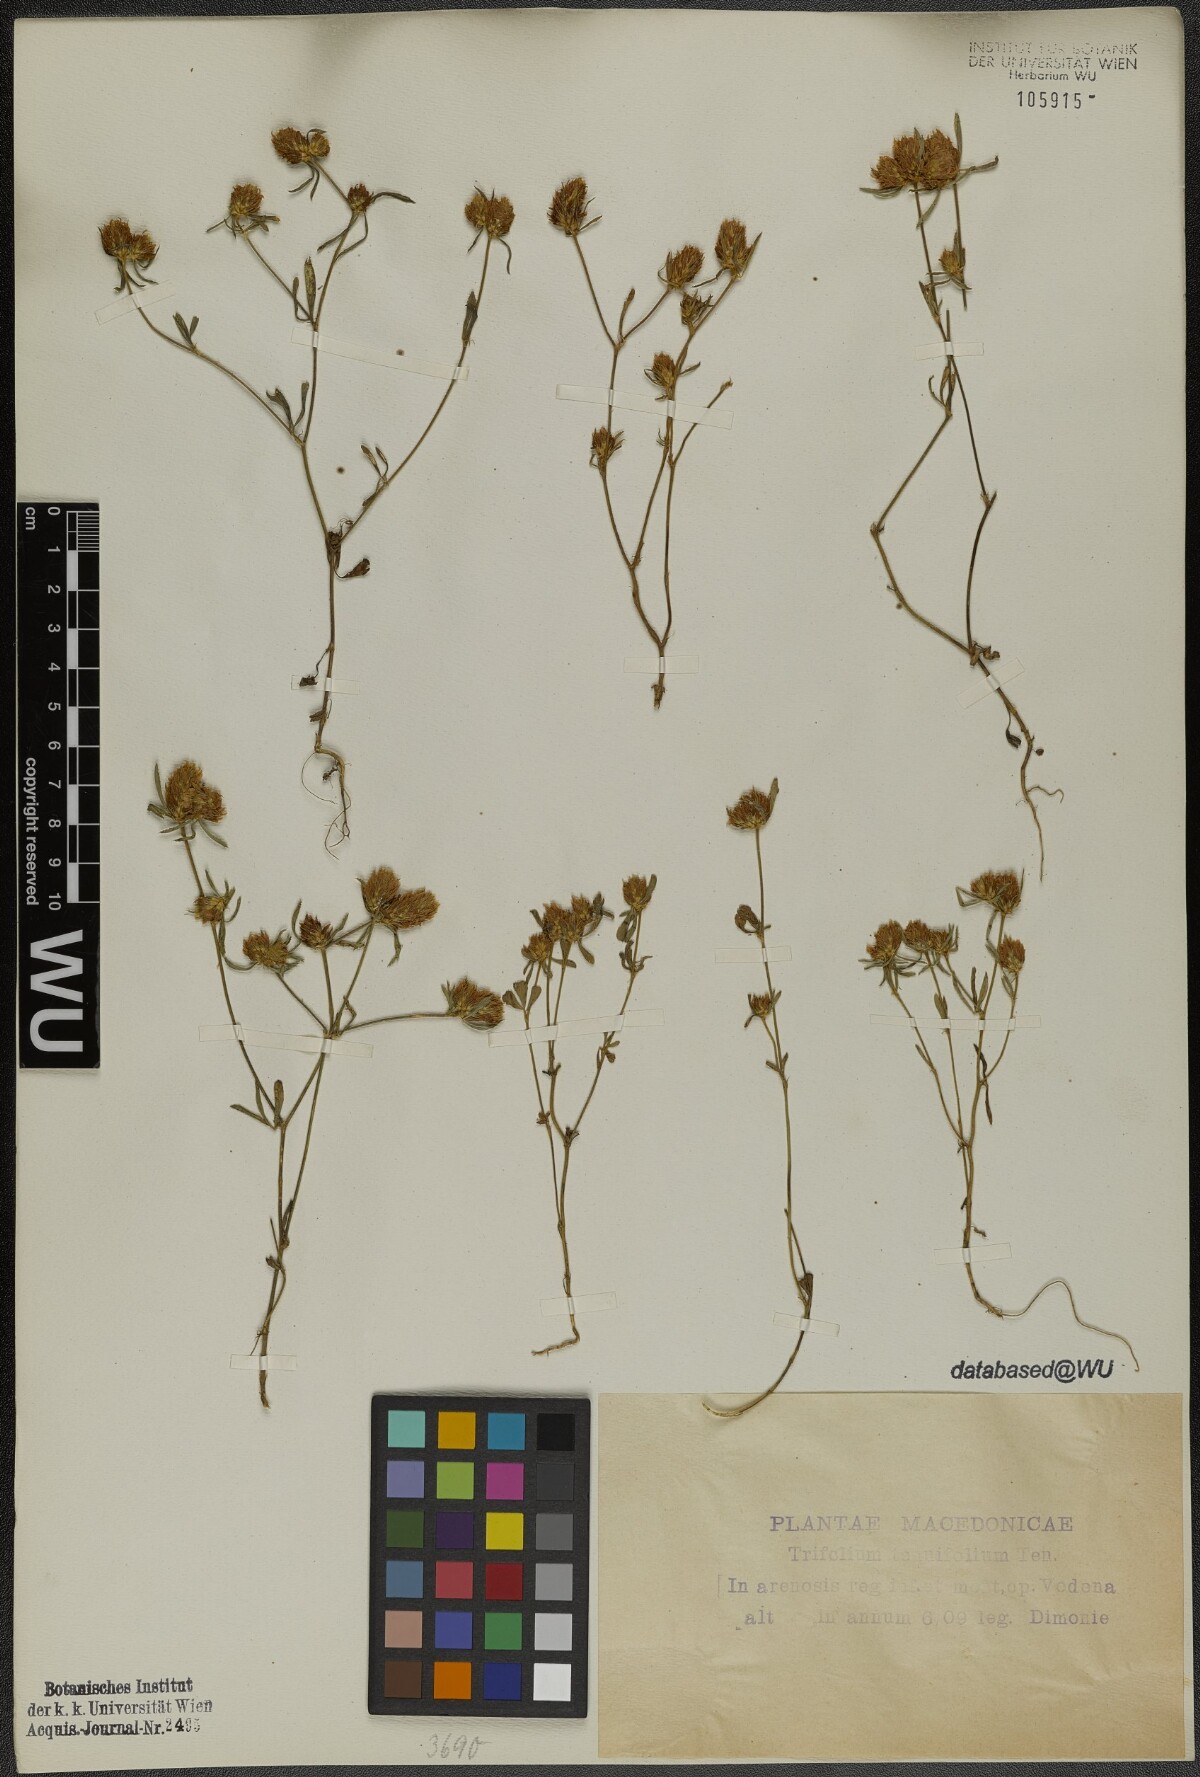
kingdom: Plantae
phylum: Tracheophyta
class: Magnoliopsida
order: Fabales
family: Fabaceae
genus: Trifolium
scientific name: Trifolium tenuifolium
